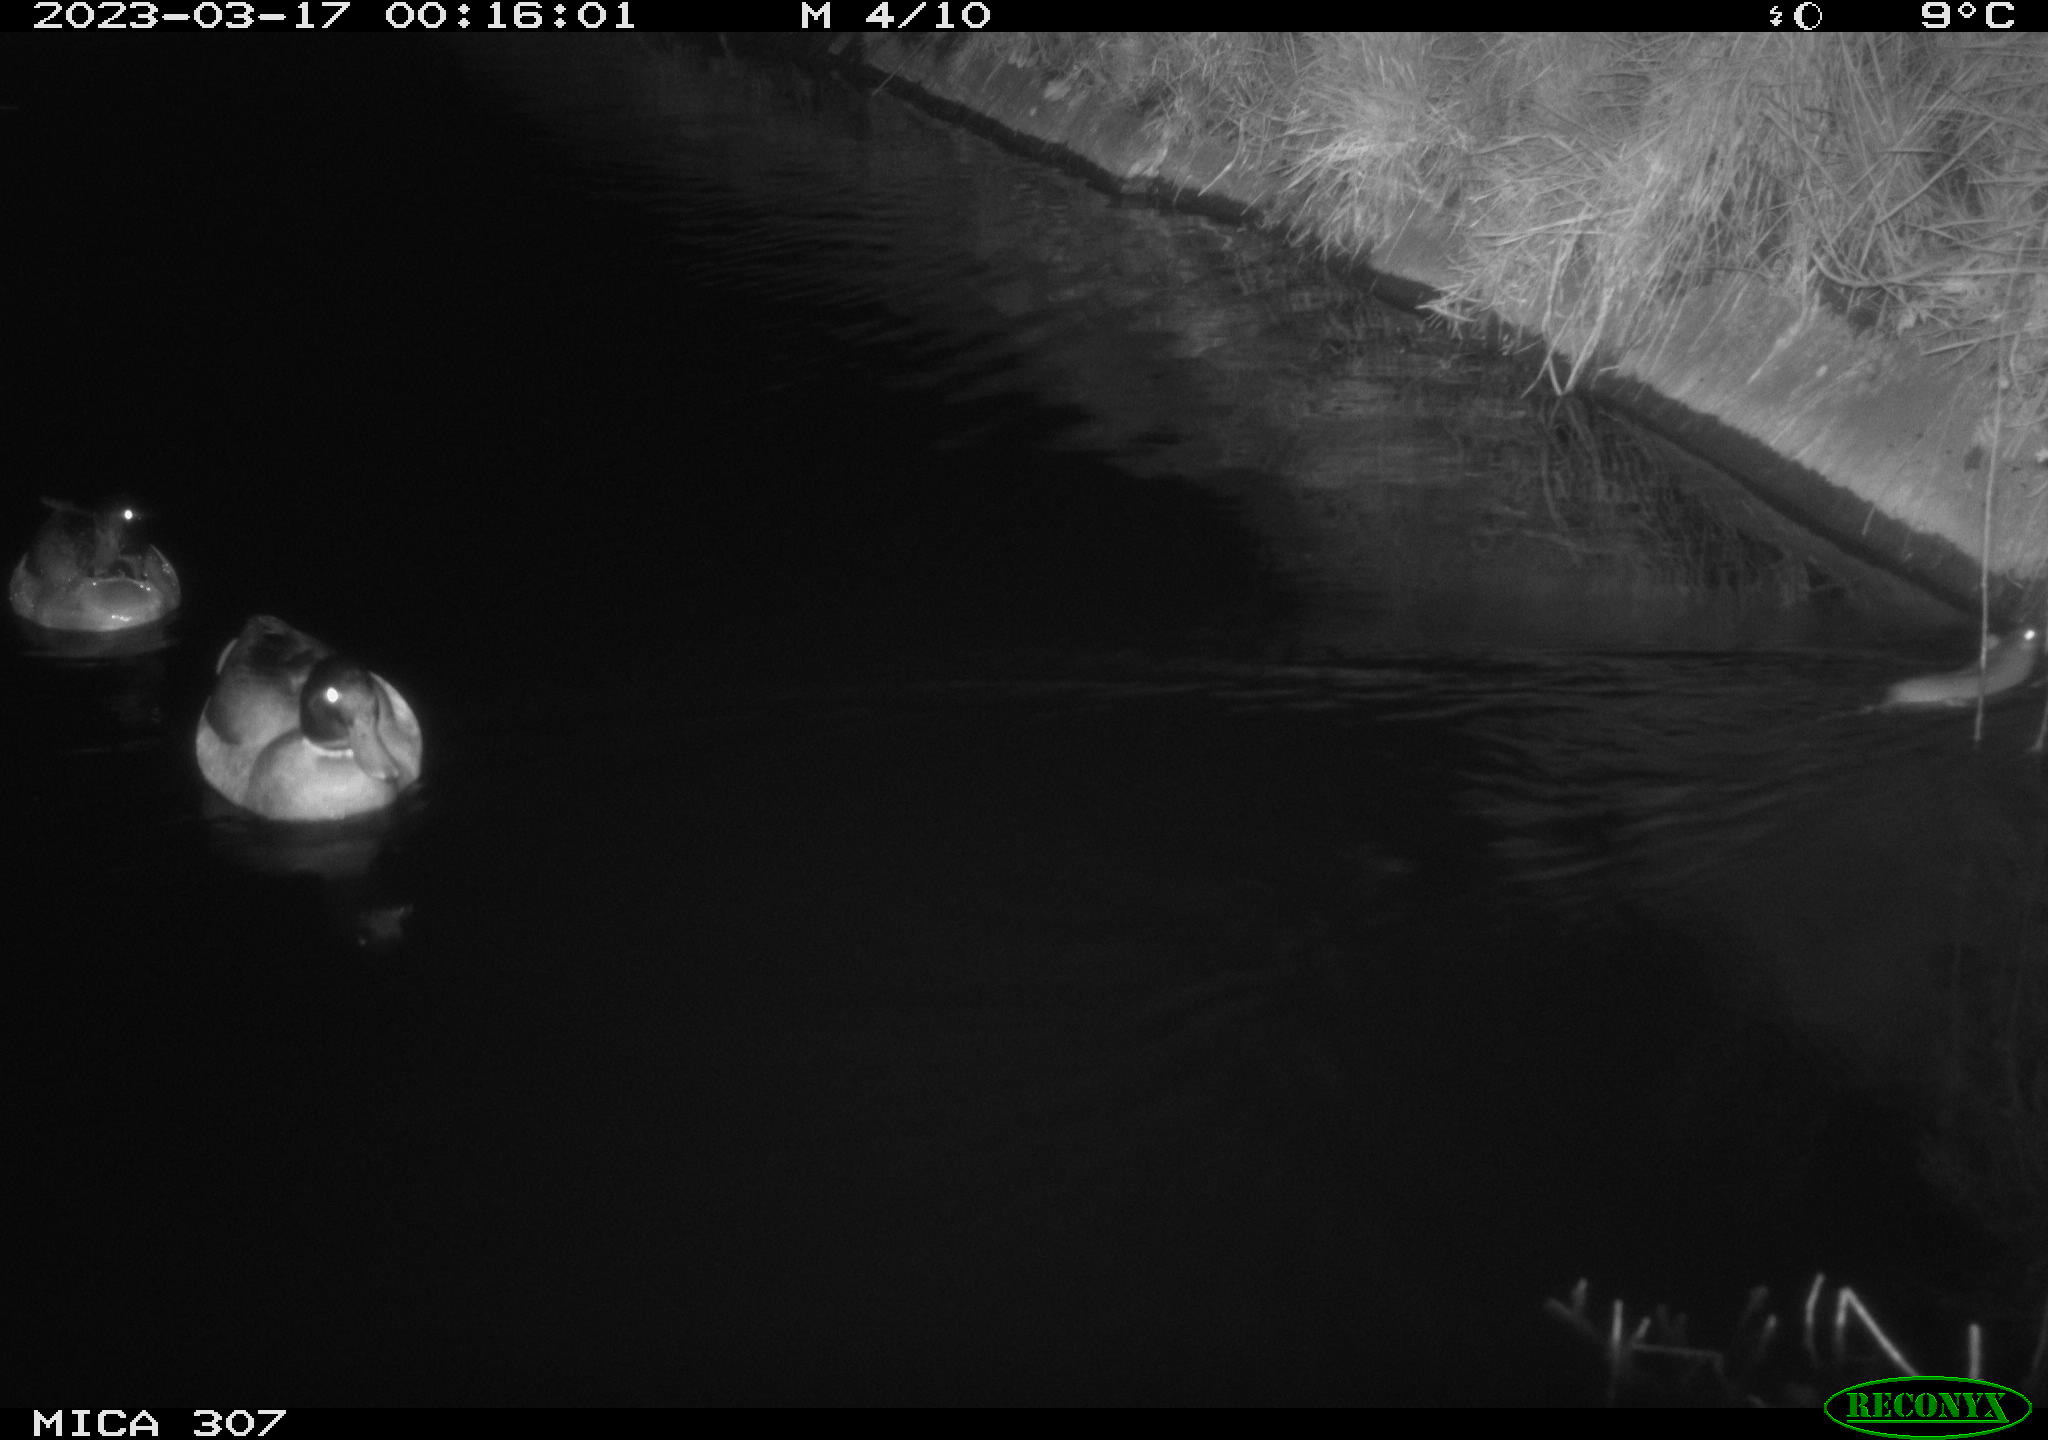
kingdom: Animalia
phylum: Chordata
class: Aves
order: Anseriformes
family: Anatidae
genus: Anas
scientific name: Anas
